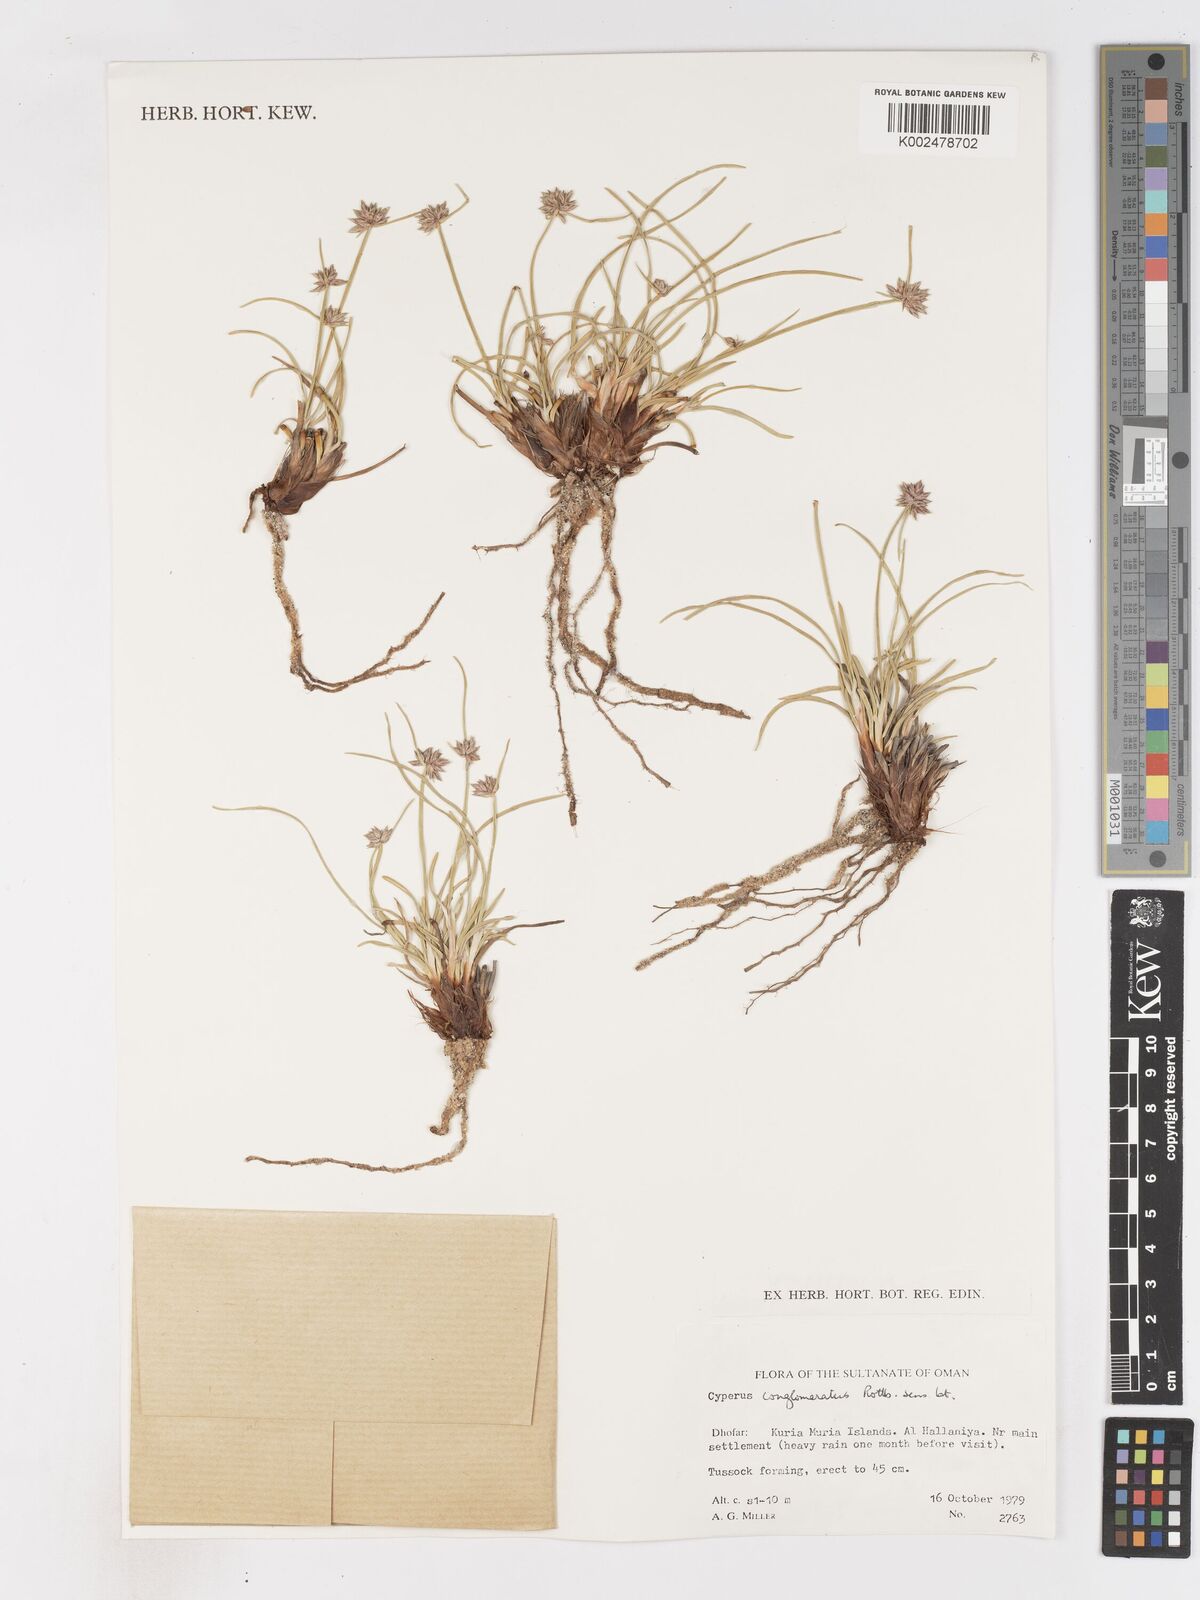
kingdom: Plantae
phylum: Tracheophyta
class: Liliopsida
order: Poales
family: Cyperaceae
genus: Cyperus
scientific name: Cyperus conglomeratus
